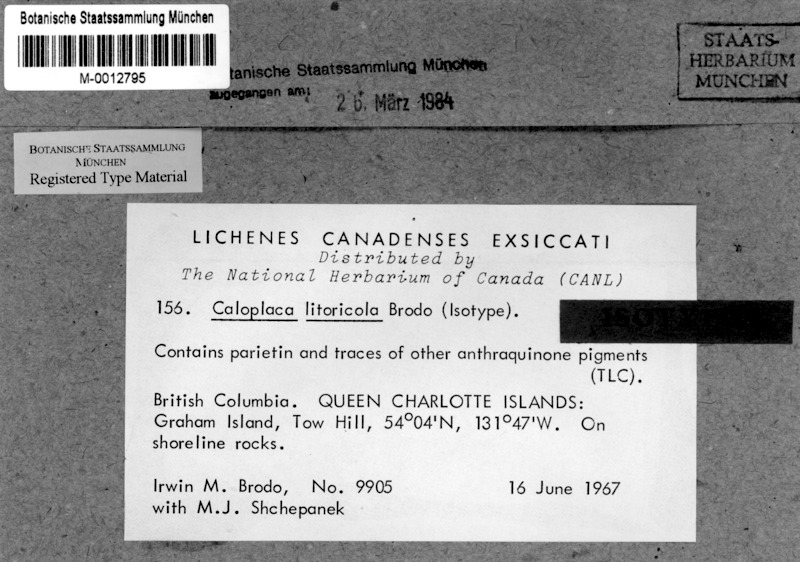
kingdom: Fungi
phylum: Ascomycota
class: Lecanoromycetes
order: Teloschistales
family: Teloschistaceae
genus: Caloplaca
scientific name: Caloplaca litoricola
